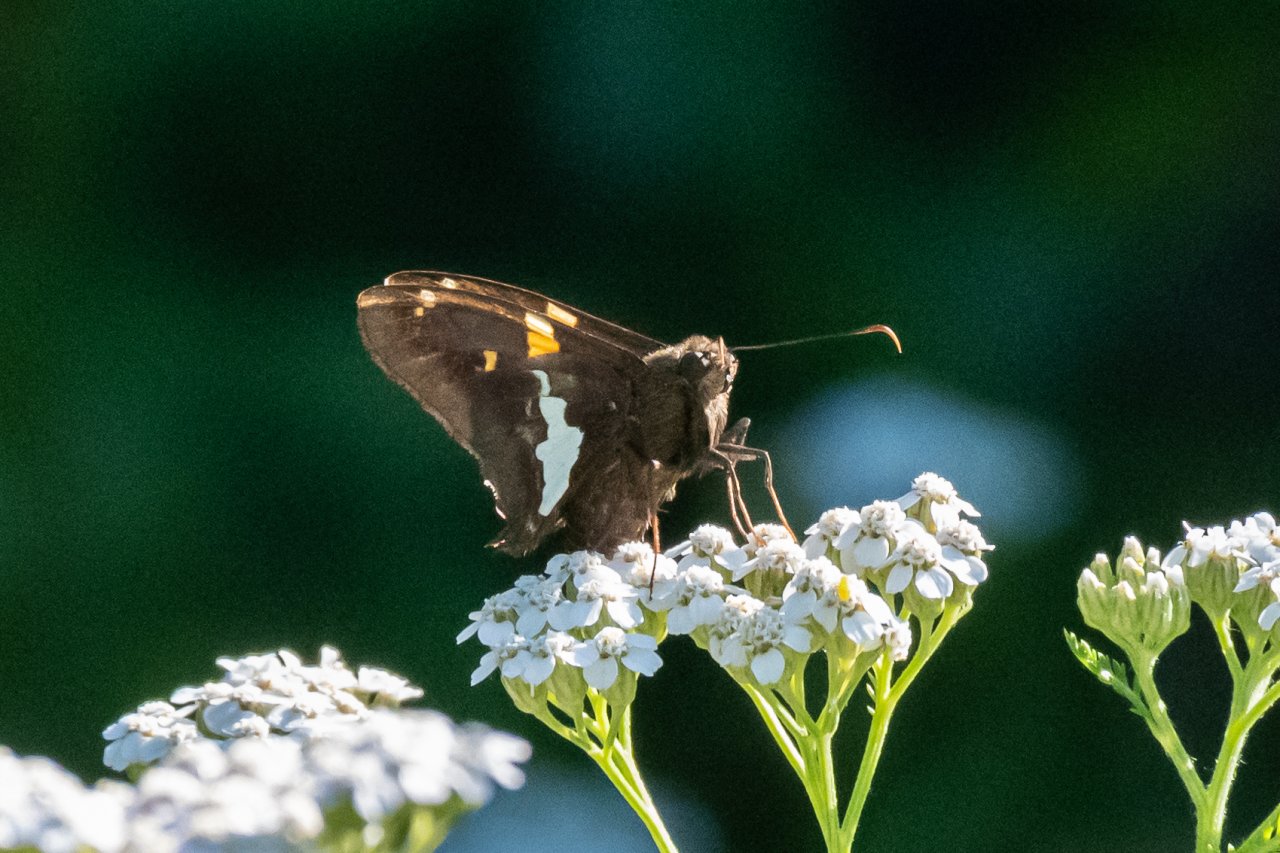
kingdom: Animalia
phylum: Arthropoda
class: Insecta
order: Lepidoptera
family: Hesperiidae
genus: Epargyreus
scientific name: Epargyreus clarus
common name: Silver-spotted Skipper
